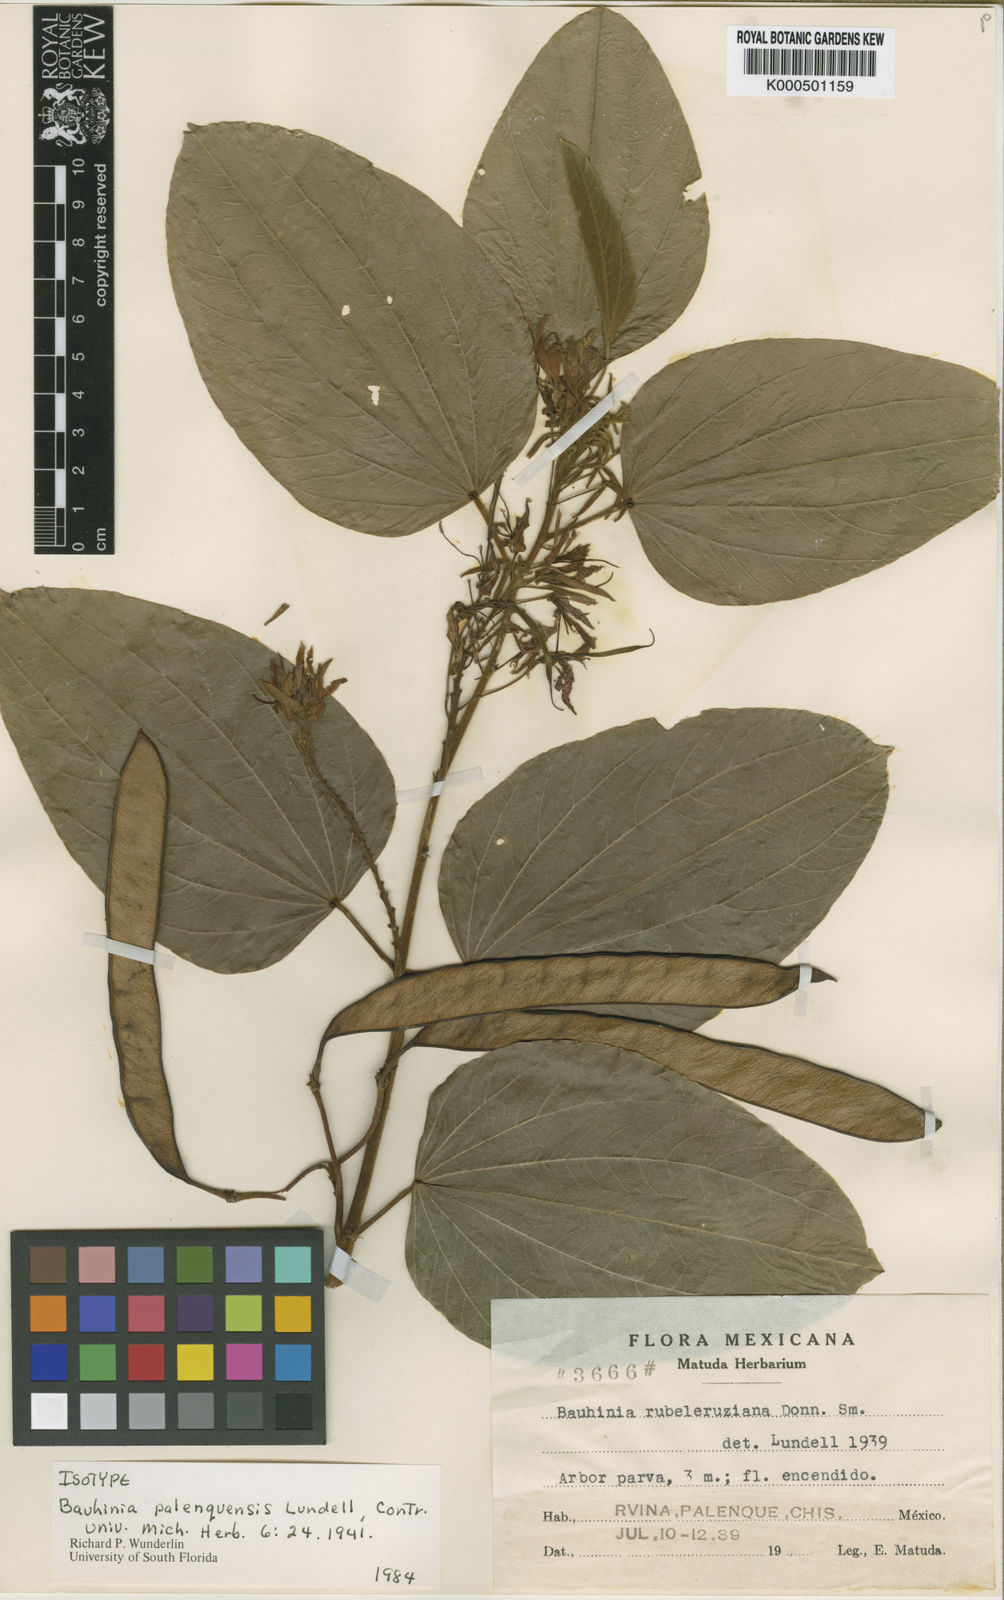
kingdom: Plantae
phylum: Tracheophyta
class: Magnoliopsida
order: Fabales
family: Fabaceae
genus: Bauhinia
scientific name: Bauhinia rubeleruziana
